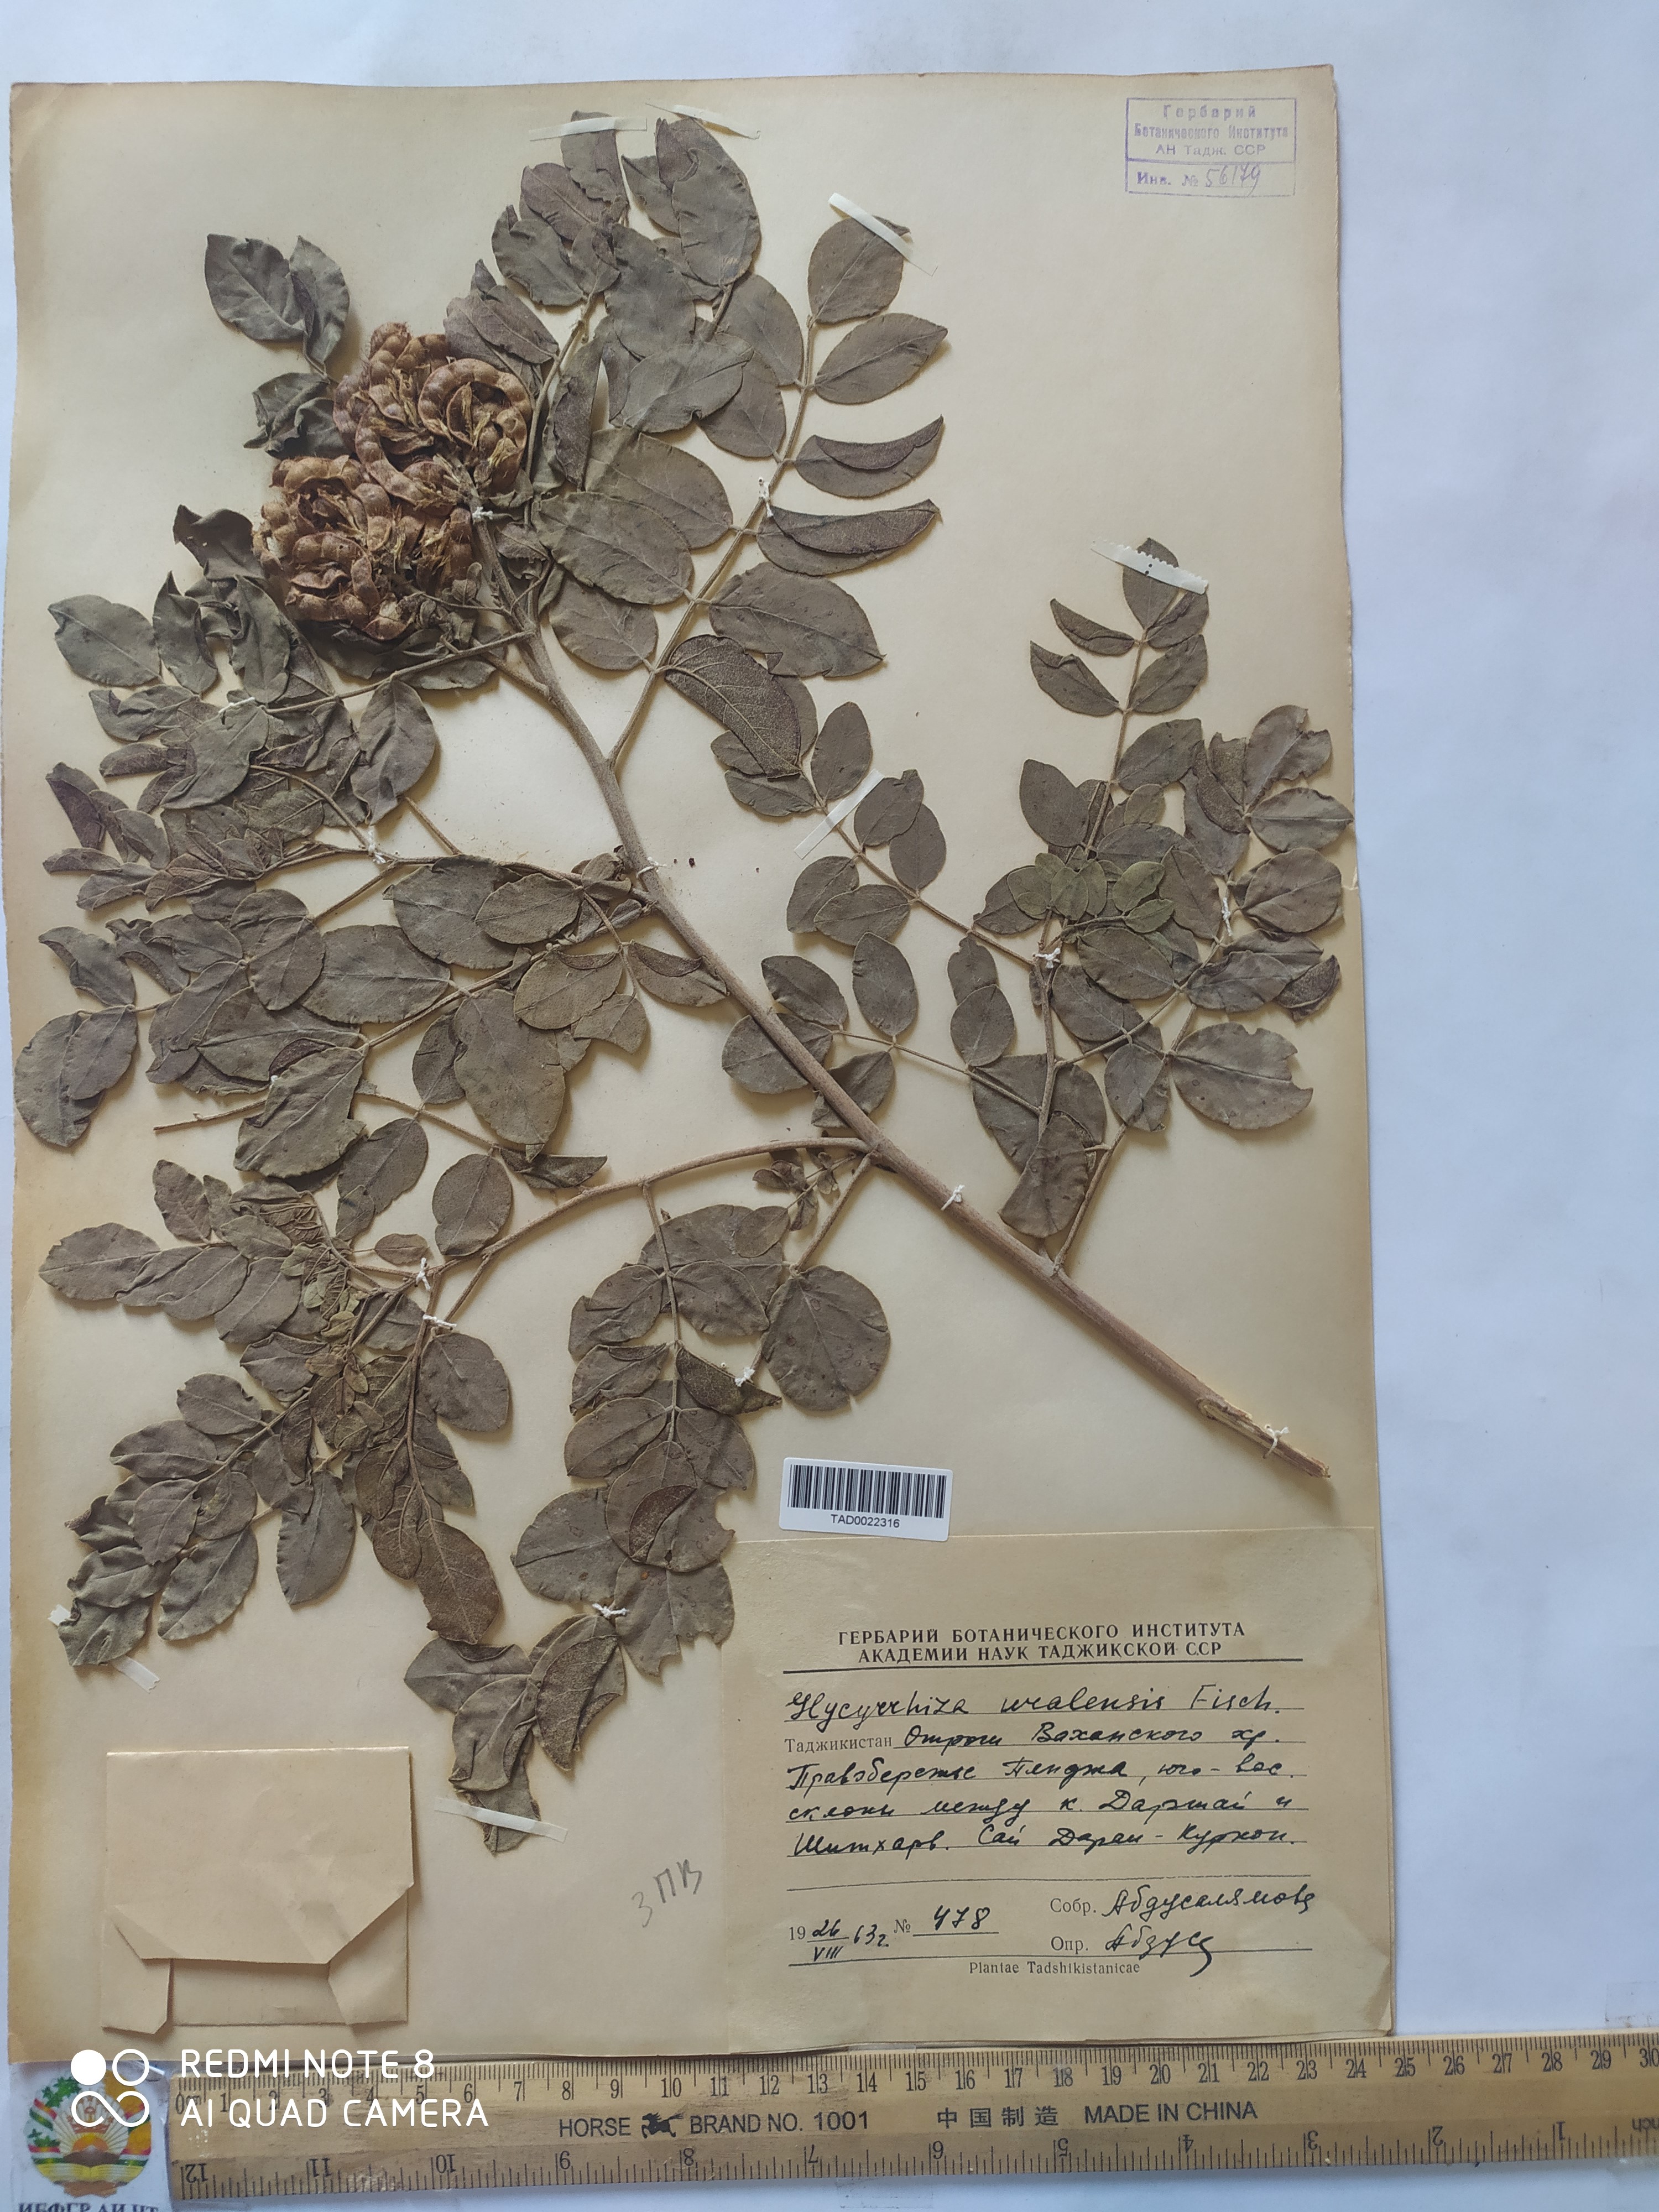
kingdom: Plantae
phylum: Tracheophyta
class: Magnoliopsida
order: Fabales
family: Fabaceae
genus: Glycyrrhiza
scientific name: Glycyrrhiza uralensis
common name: Chinese licorice
